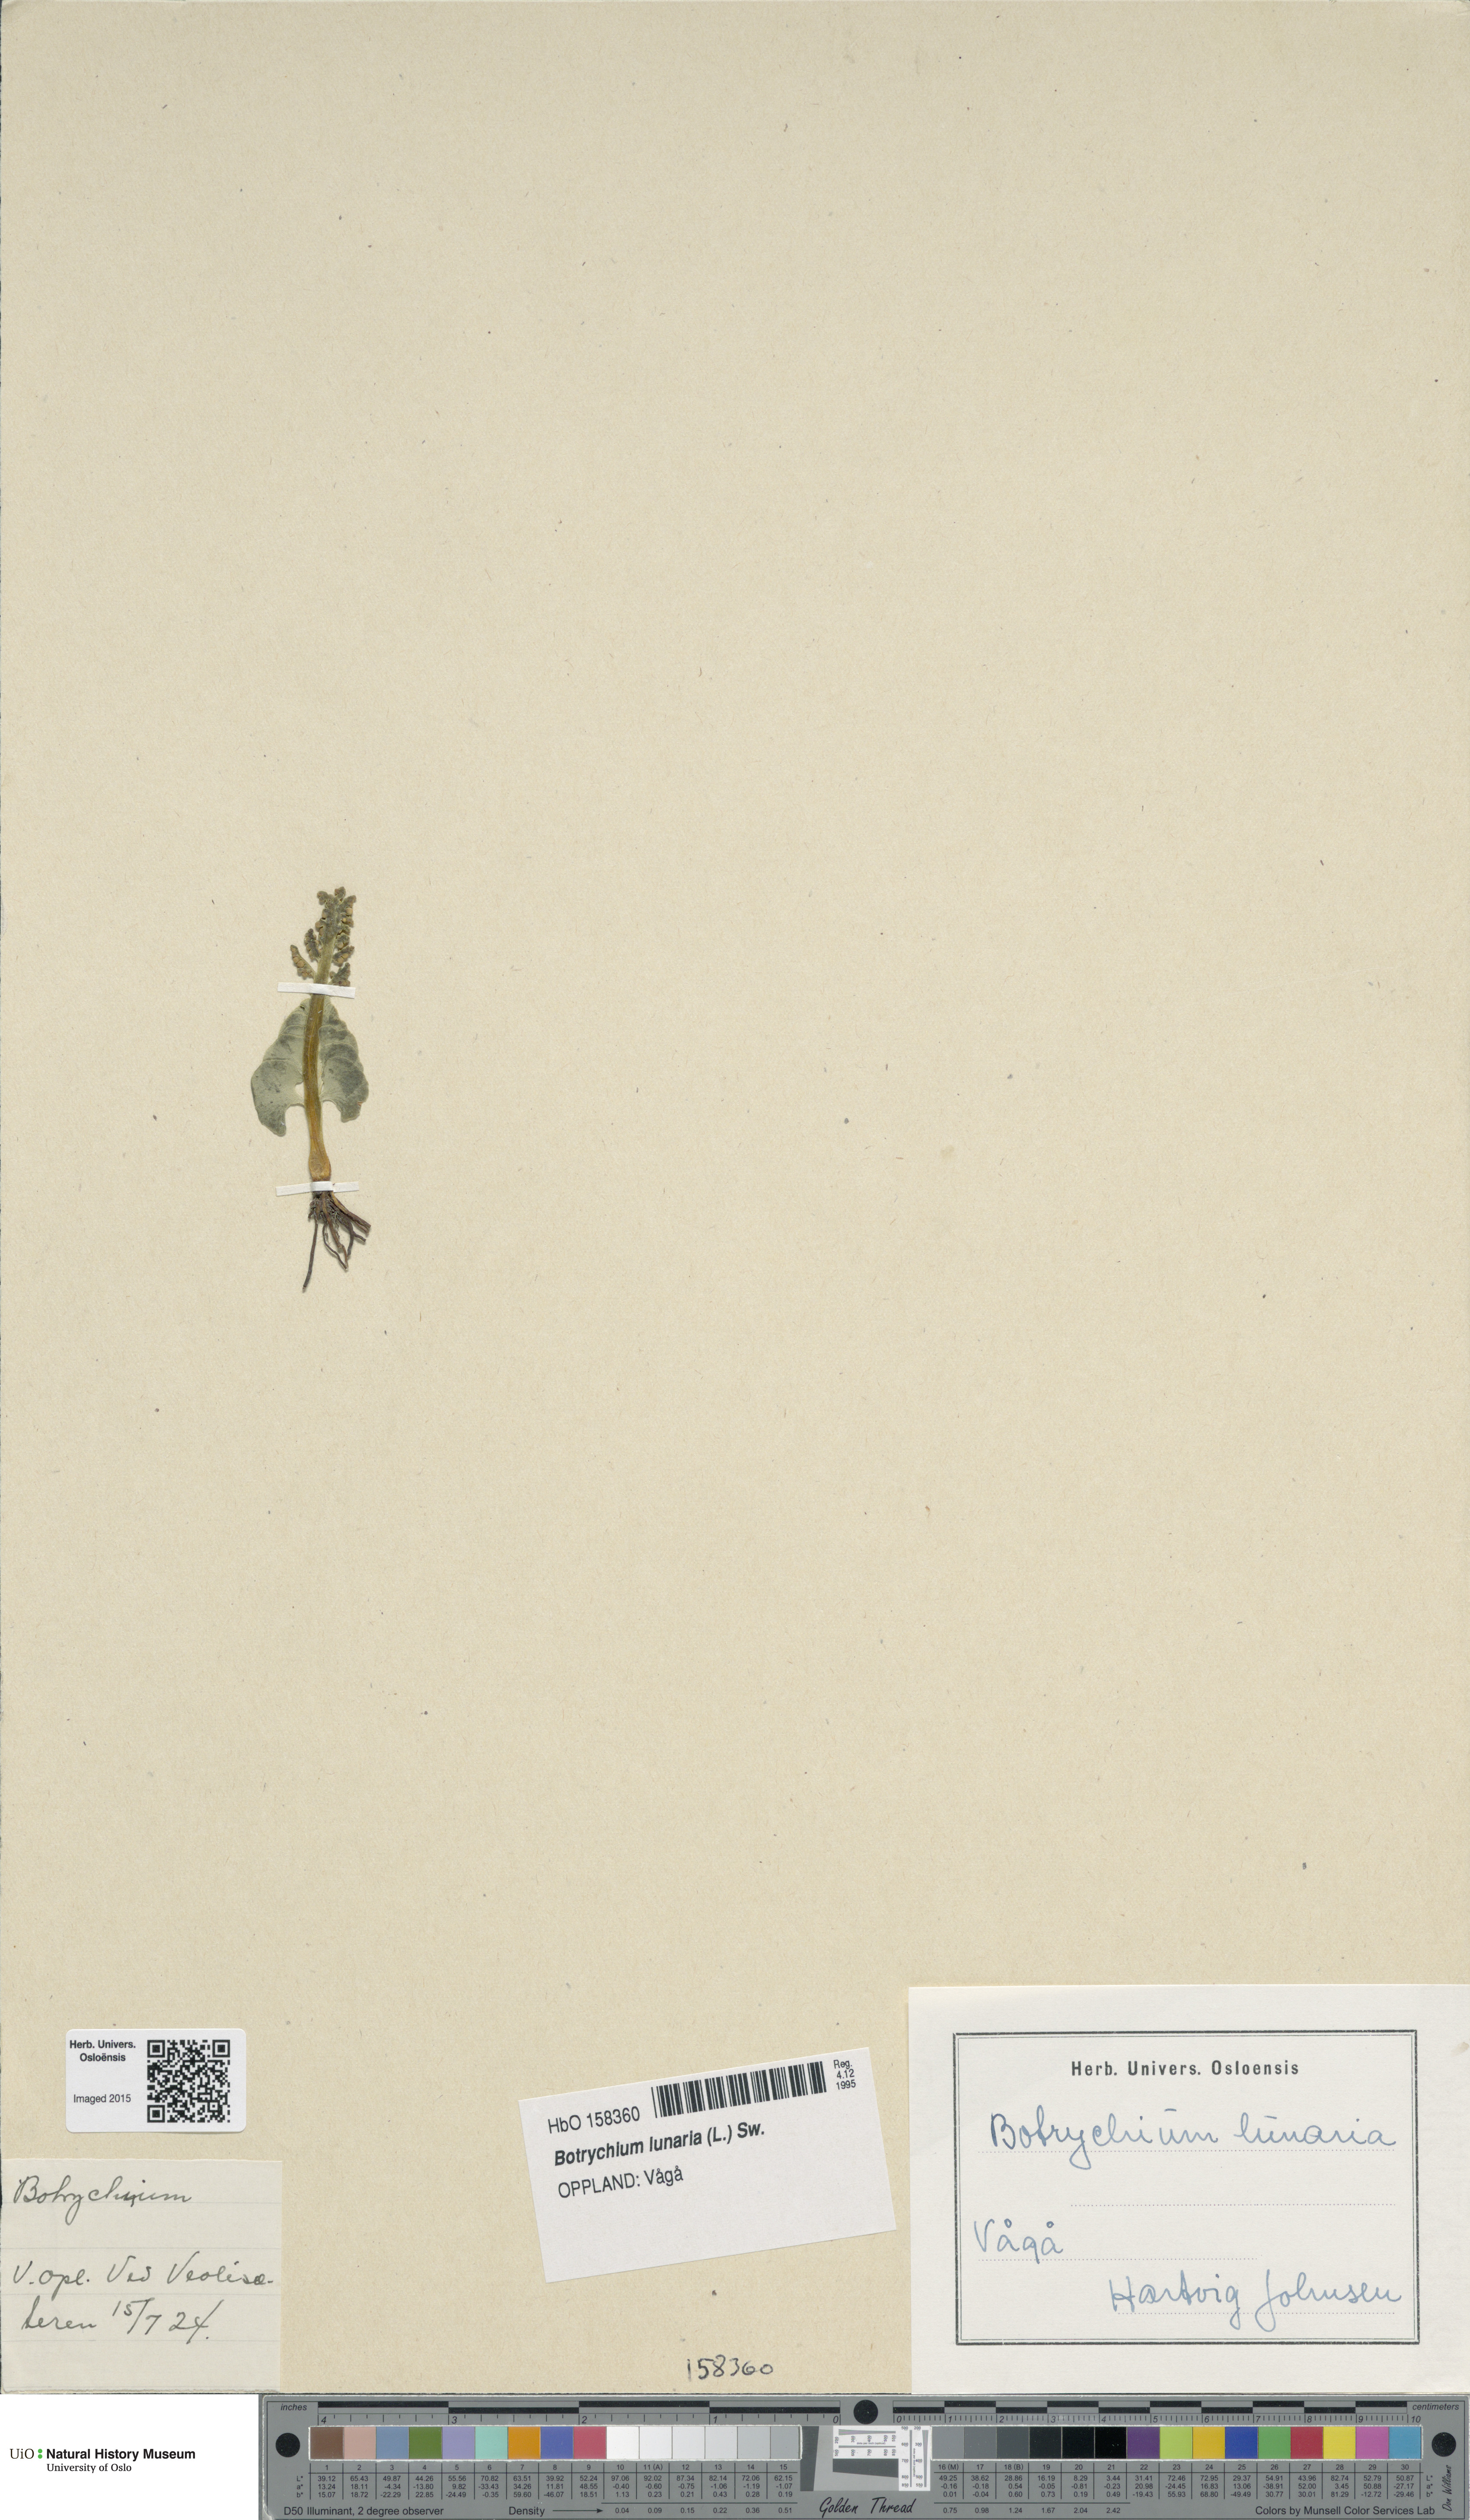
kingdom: Plantae
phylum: Tracheophyta
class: Polypodiopsida
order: Ophioglossales
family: Ophioglossaceae
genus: Botrychium
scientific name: Botrychium lunaria
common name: Moonwort
